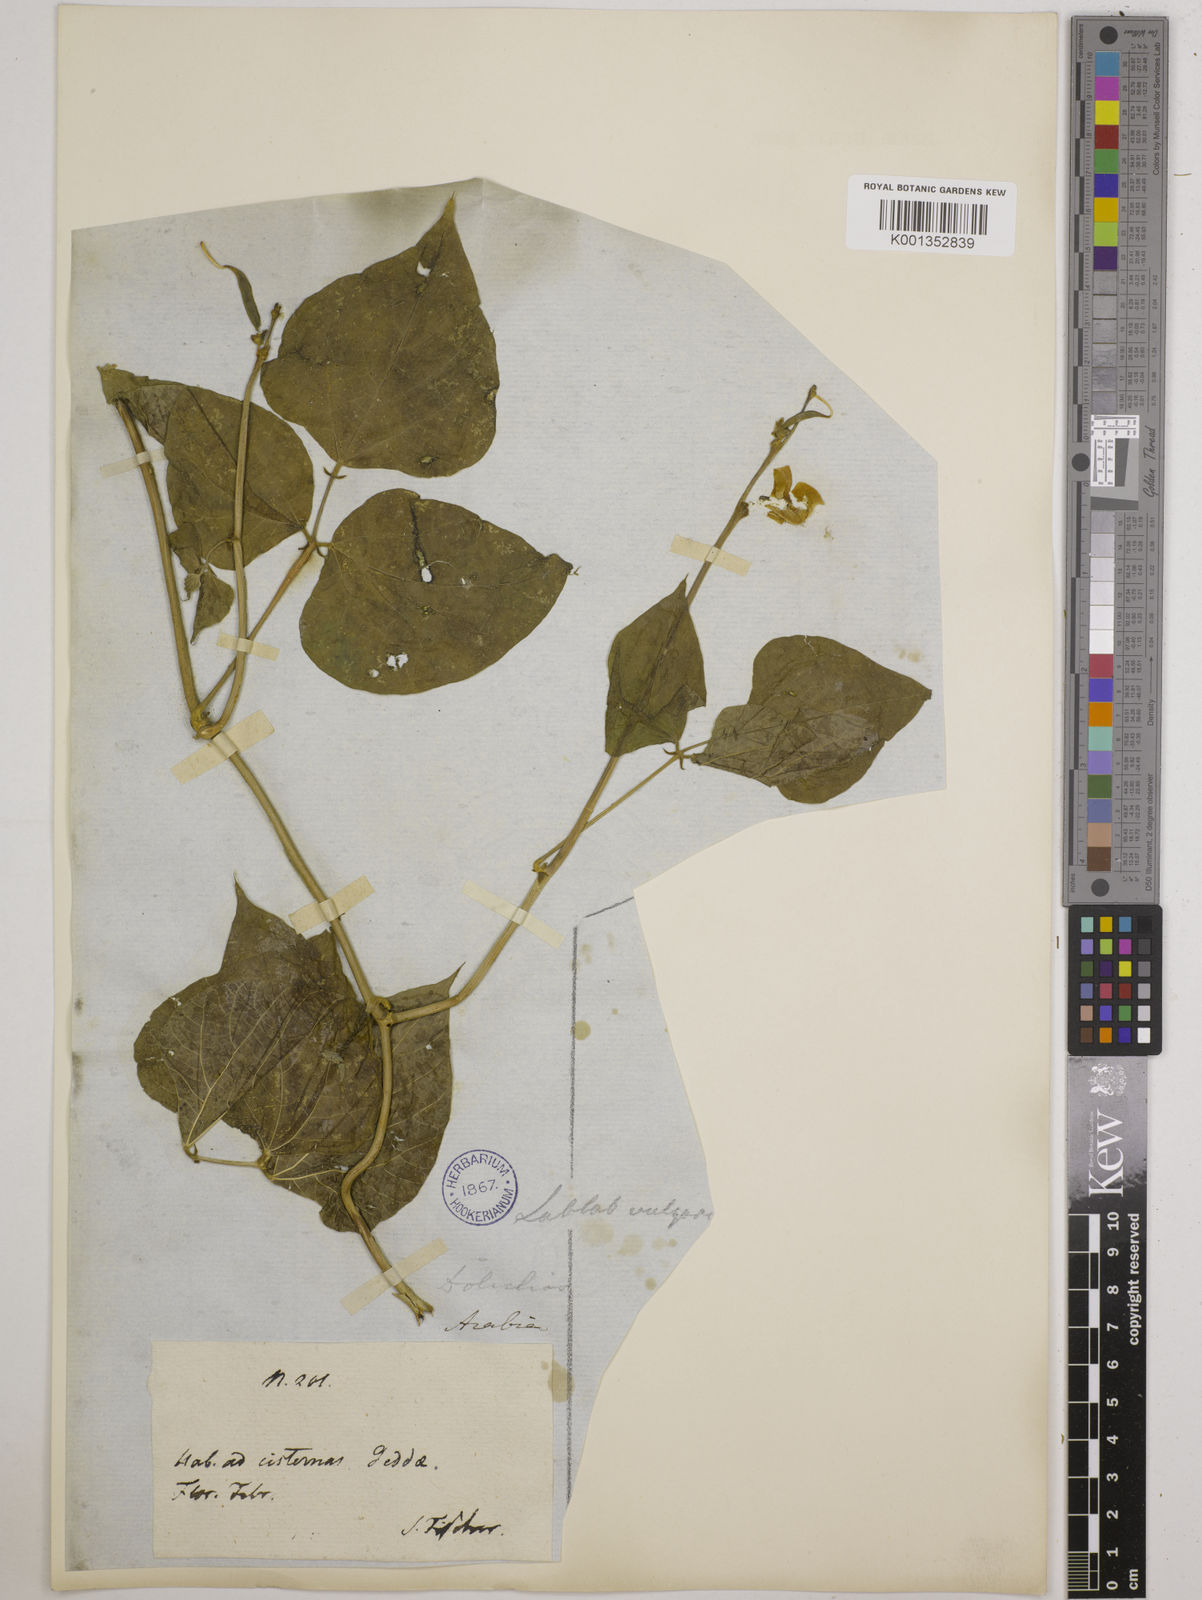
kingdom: Plantae
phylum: Tracheophyta
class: Magnoliopsida
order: Fabales
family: Fabaceae
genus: Lablab
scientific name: Lablab purpureus
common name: Lablab-bean
